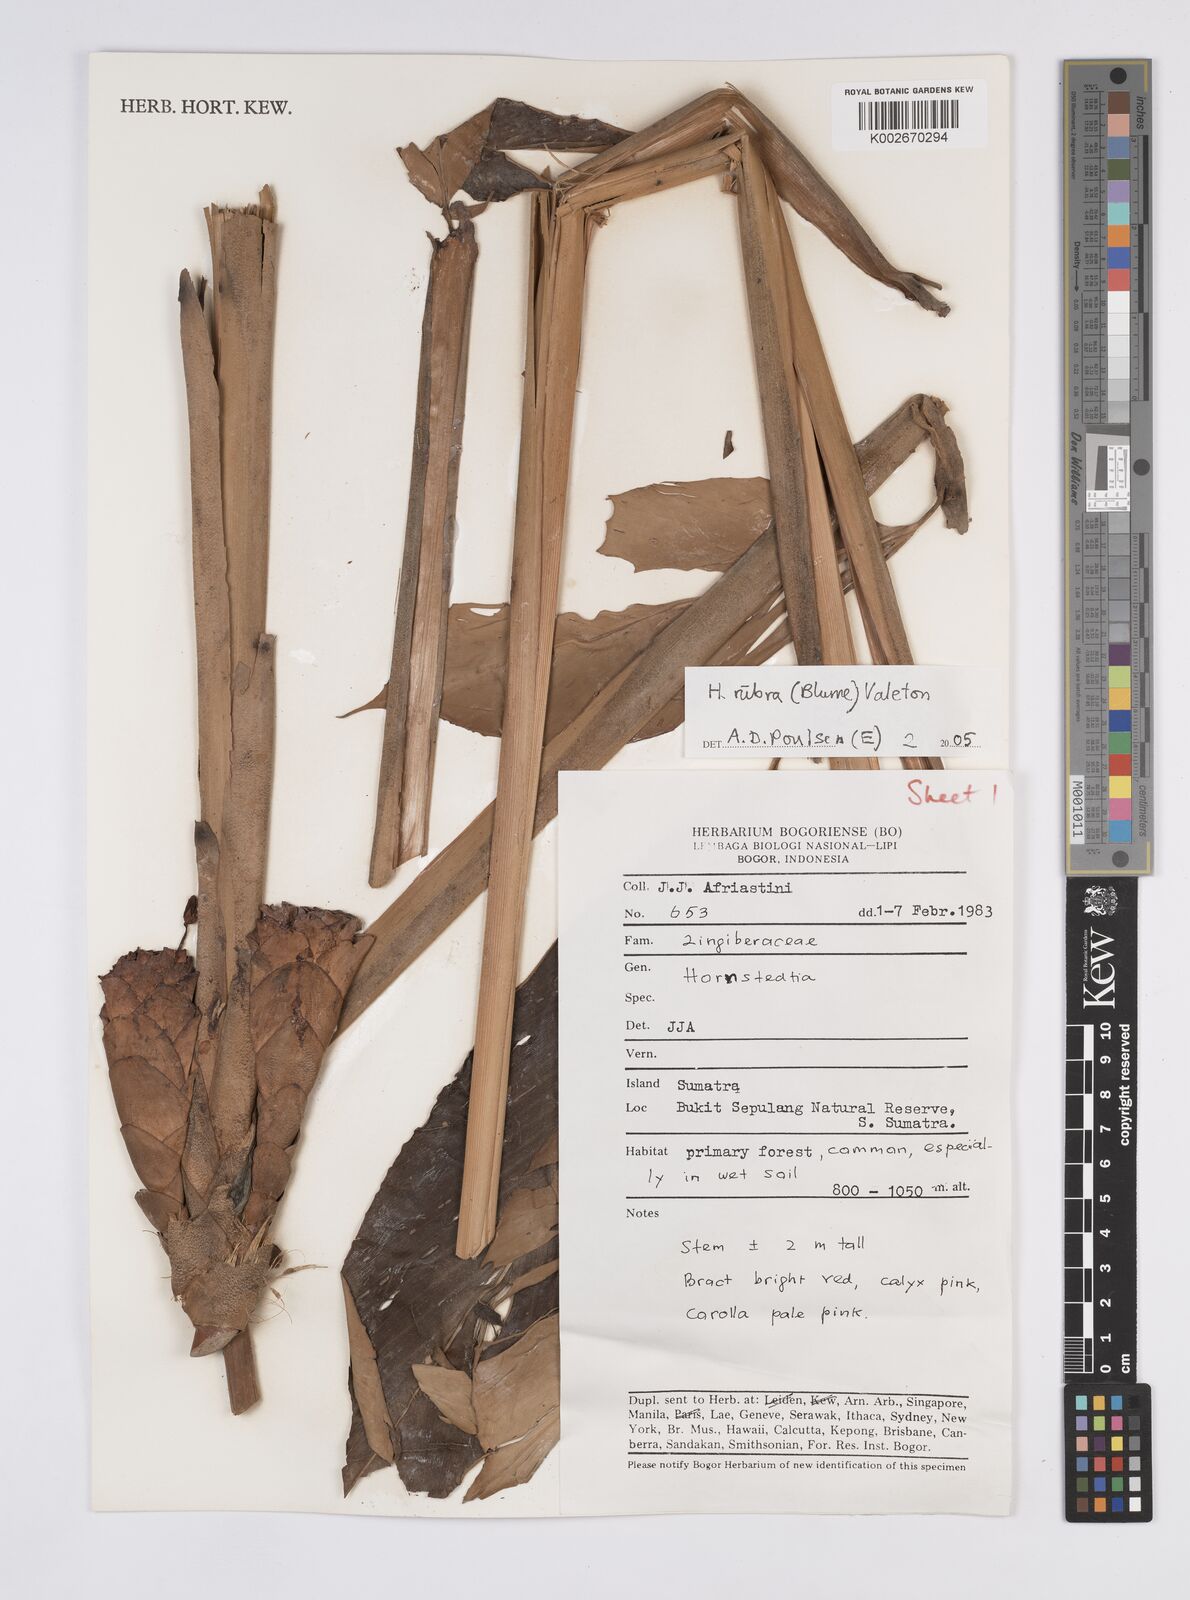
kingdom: Plantae
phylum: Tracheophyta
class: Liliopsida
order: Zingiberales
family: Zingiberaceae
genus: Hornstedtia
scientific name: Hornstedtia rubra
